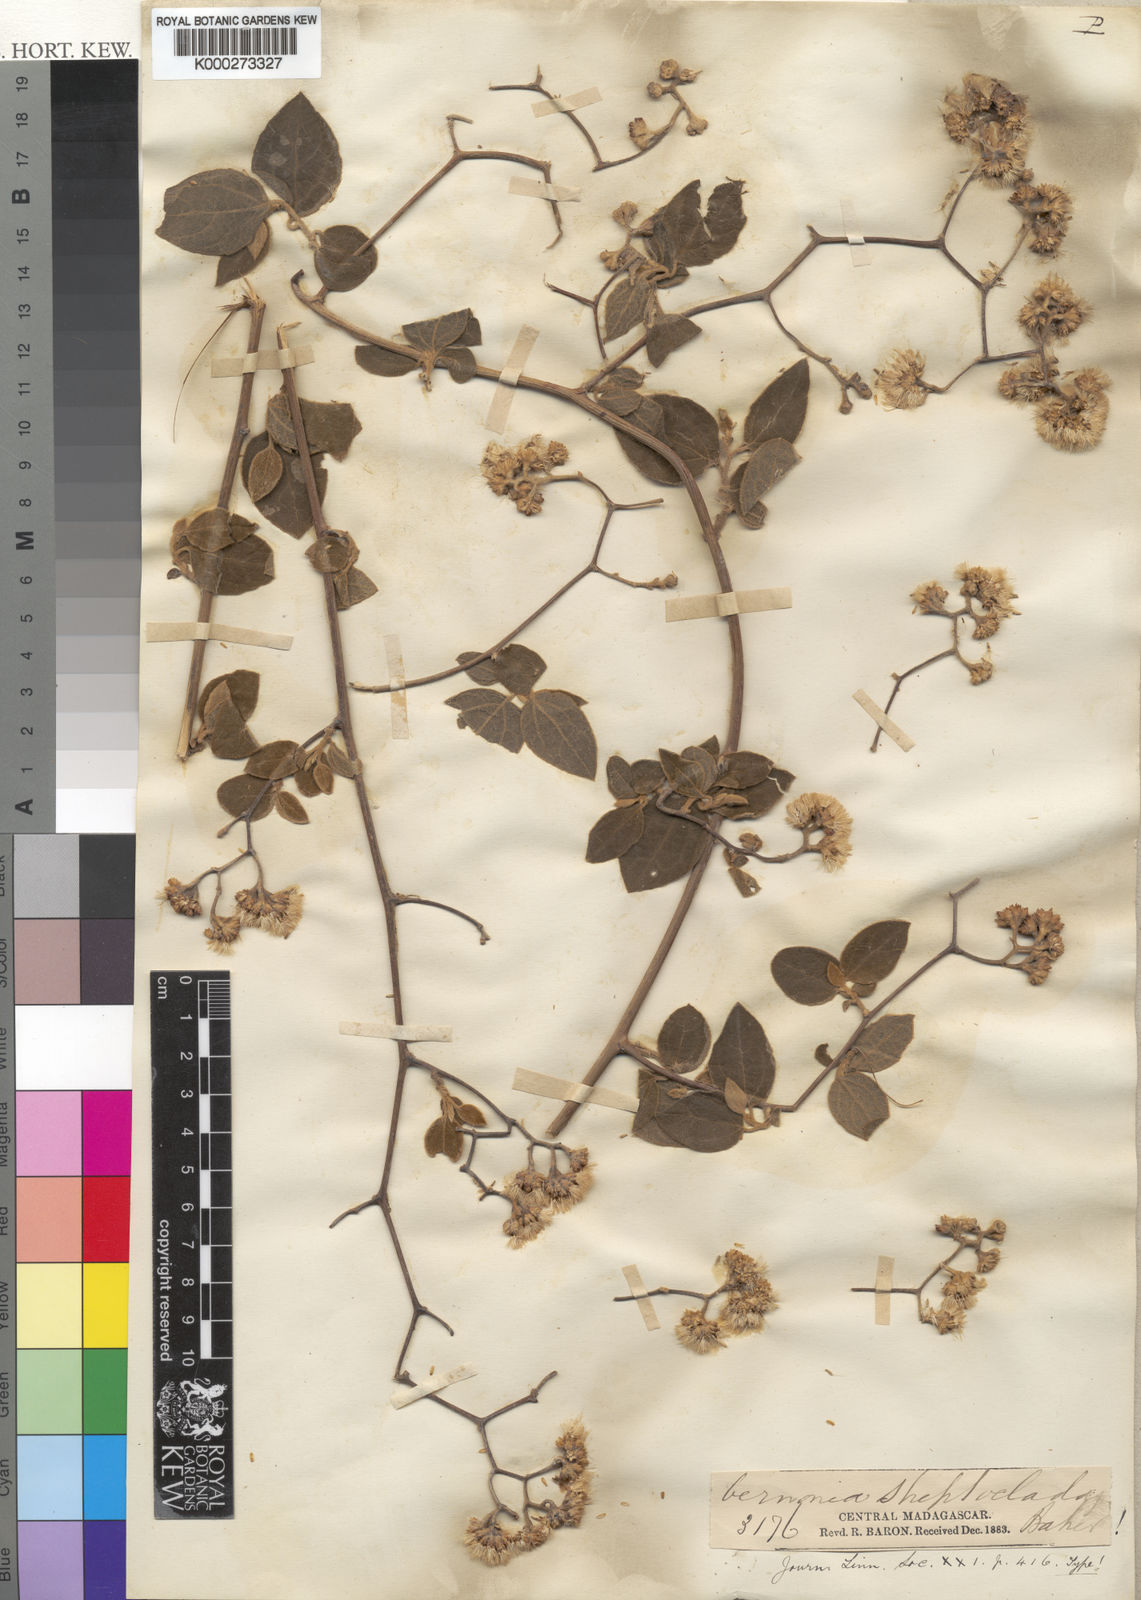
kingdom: Plantae
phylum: Tracheophyta
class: Magnoliopsida
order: Asterales
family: Asteraceae
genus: Distephanus
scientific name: Distephanus streptocladus
